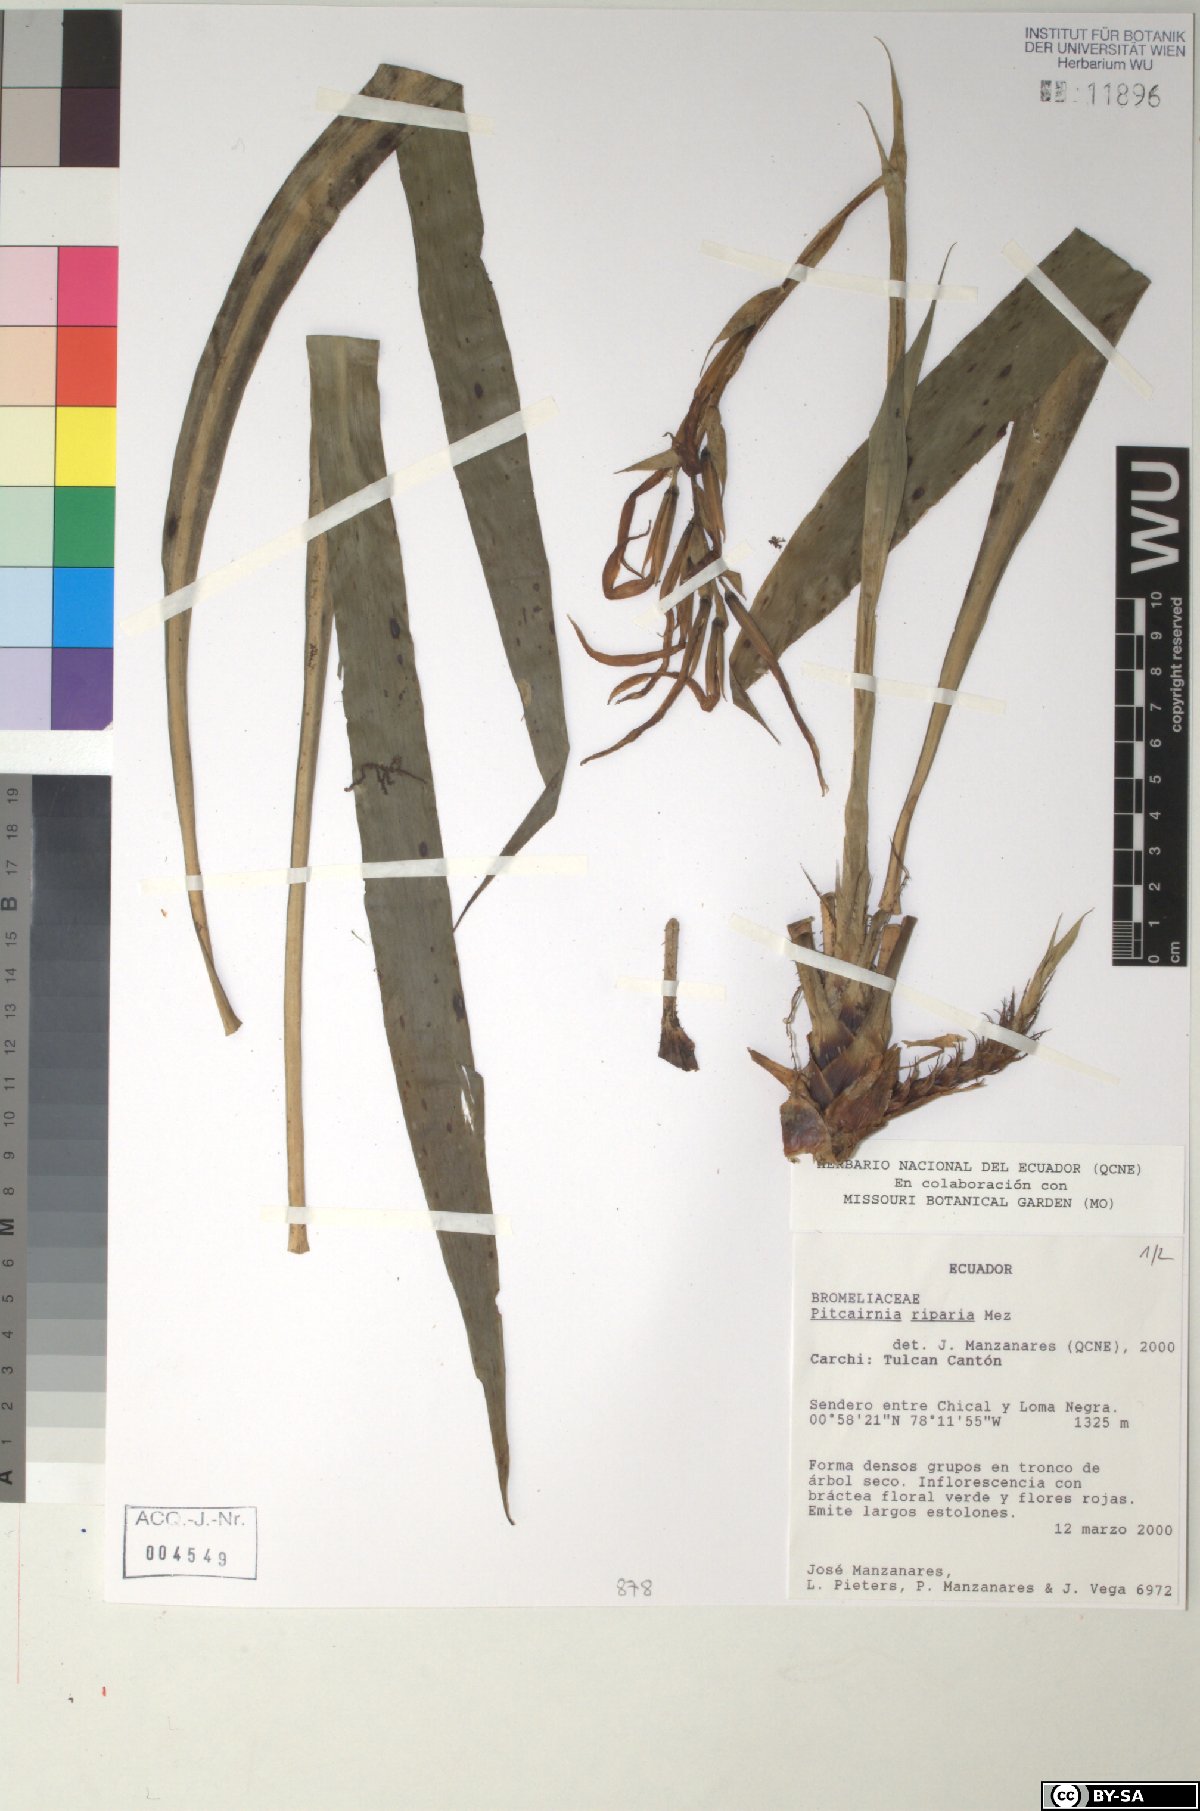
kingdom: Plantae
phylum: Tracheophyta
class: Liliopsida
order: Poales
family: Bromeliaceae
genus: Pitcairnia
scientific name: Pitcairnia riparia
